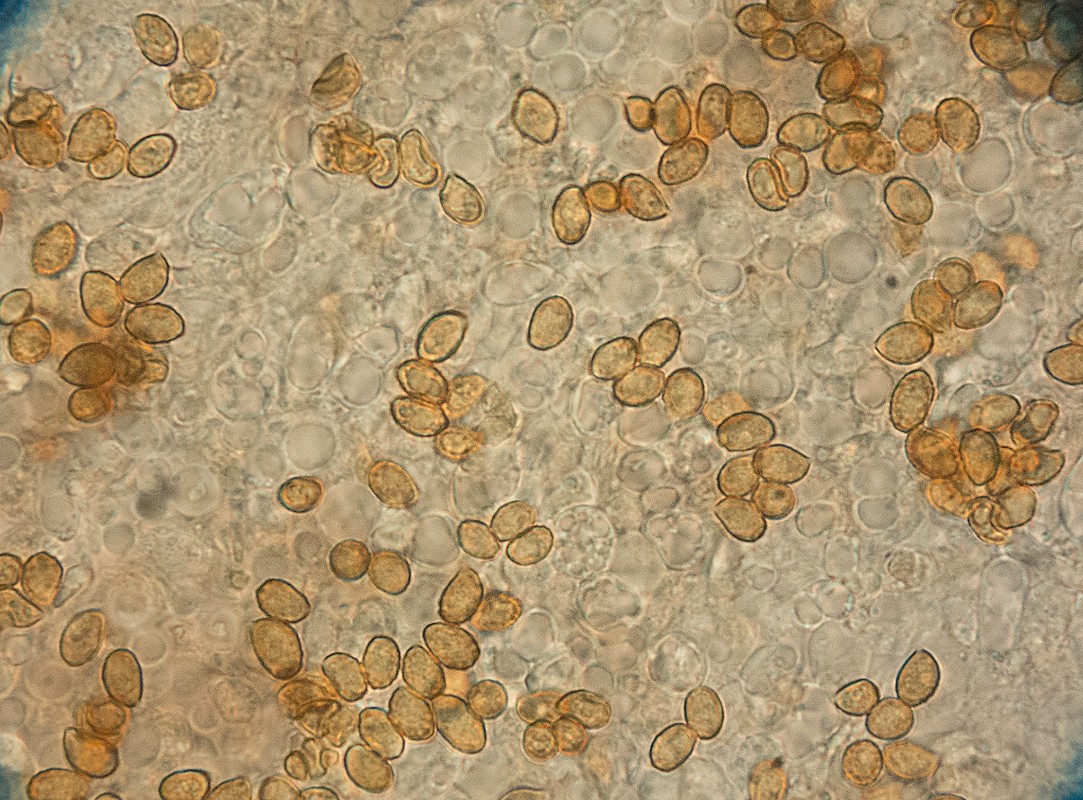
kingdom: Fungi
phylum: Basidiomycota
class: Agaricomycetes
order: Agaricales
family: Cortinariaceae
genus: Cortinarius
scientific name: Cortinarius bonachei
